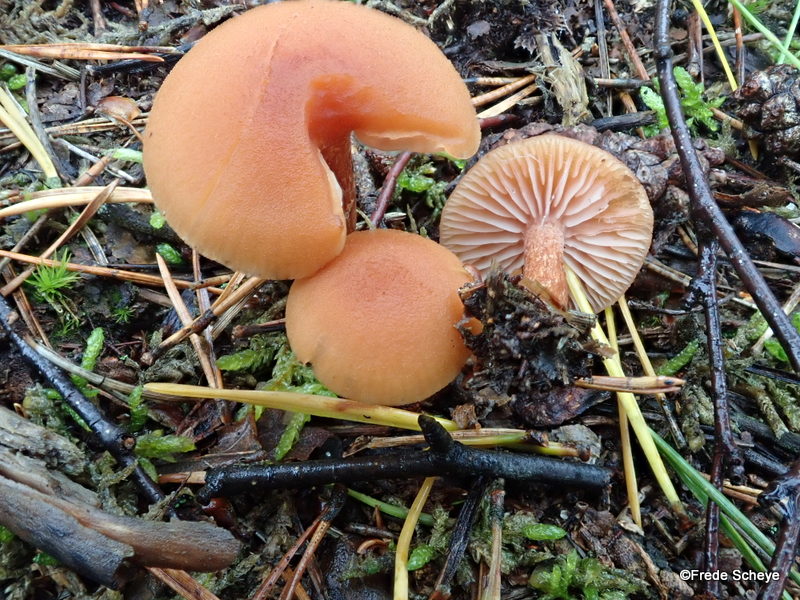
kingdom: Fungi
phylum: Basidiomycota
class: Agaricomycetes
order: Agaricales
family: Hydnangiaceae
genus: Laccaria
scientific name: Laccaria laccata
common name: rød ametysthat
